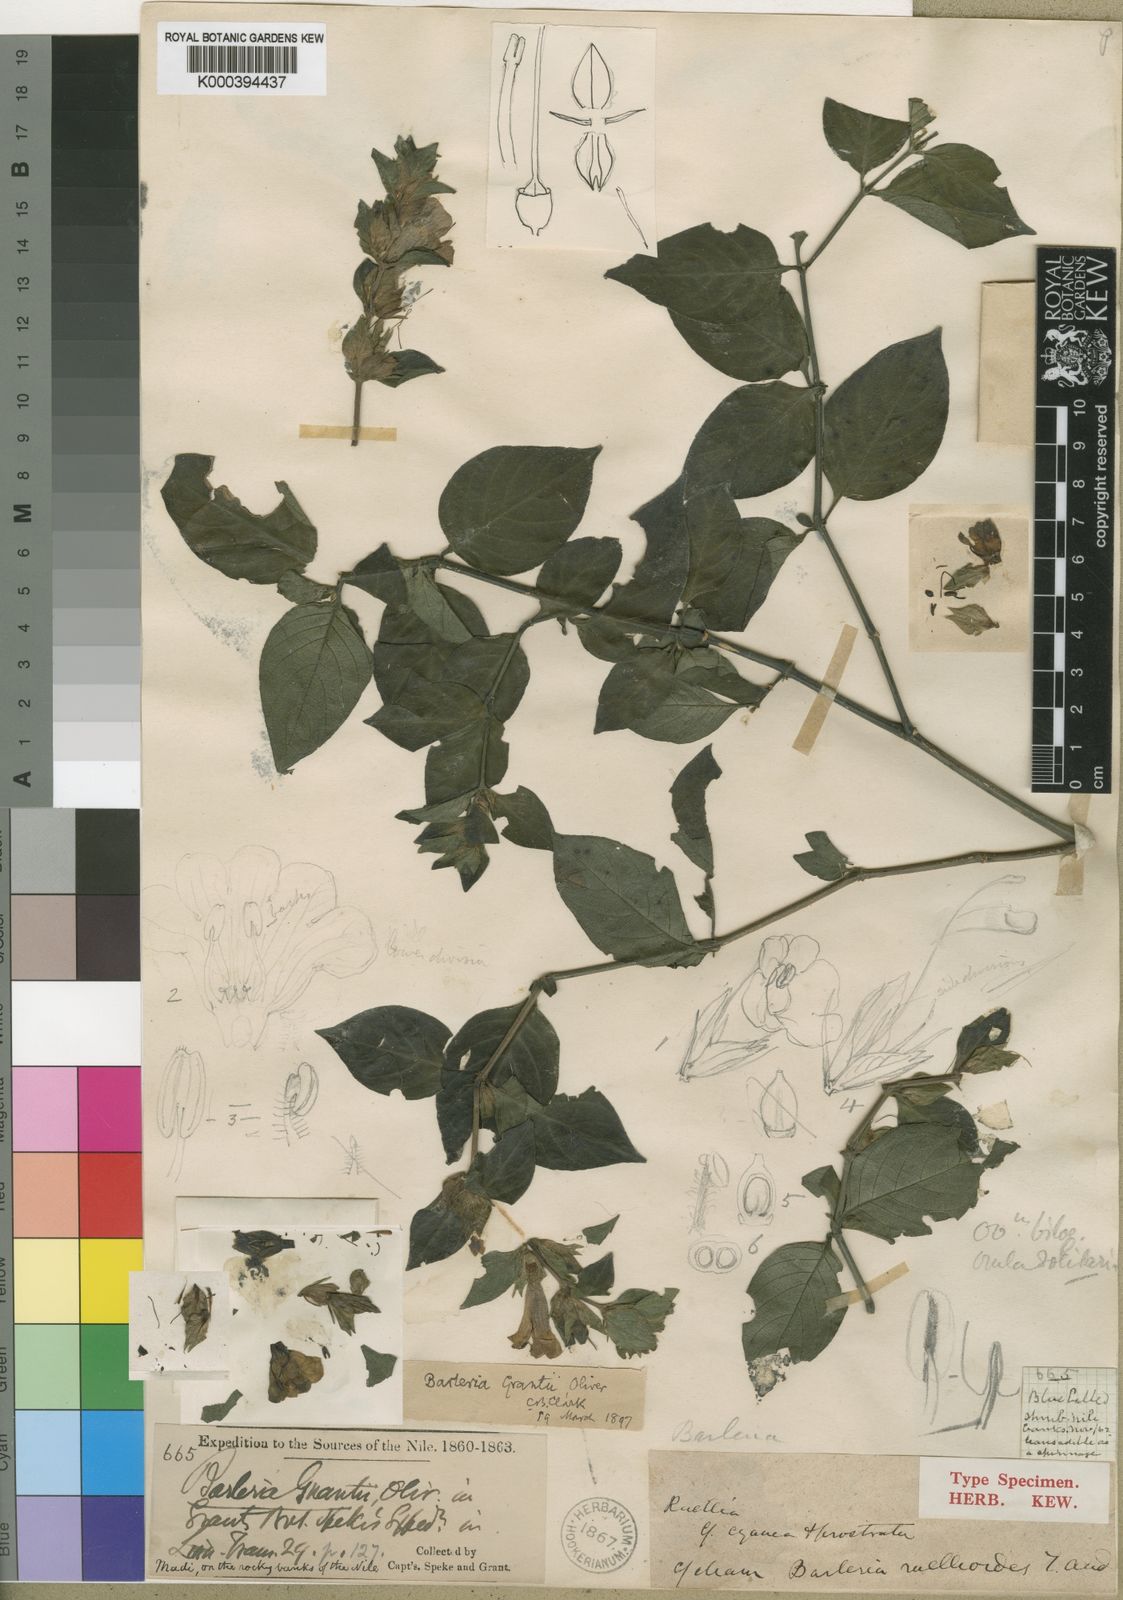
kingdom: Plantae
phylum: Tracheophyta
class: Magnoliopsida
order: Lamiales
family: Acanthaceae
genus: Barleria
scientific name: Barleria ventricosa
